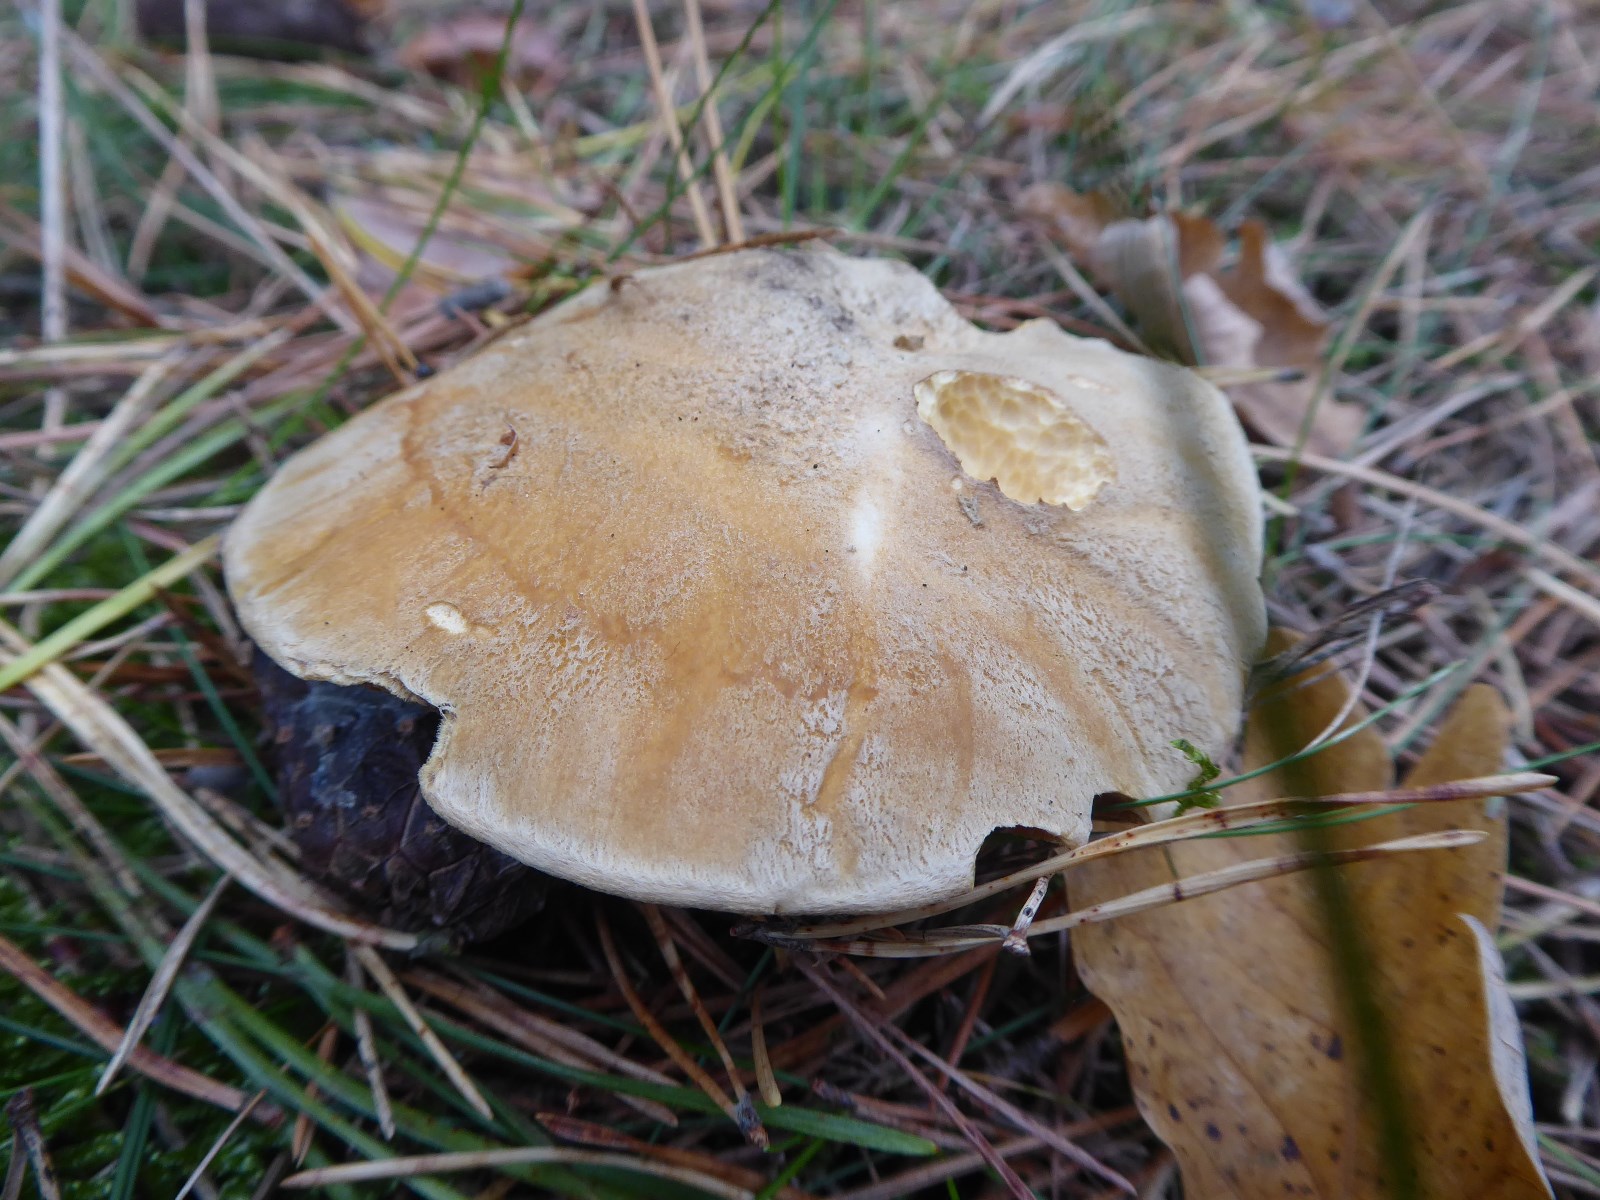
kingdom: Fungi
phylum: Basidiomycota
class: Agaricomycetes
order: Boletales
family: Suillaceae
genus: Suillus
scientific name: Suillus variegatus
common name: broget slimrørhat
